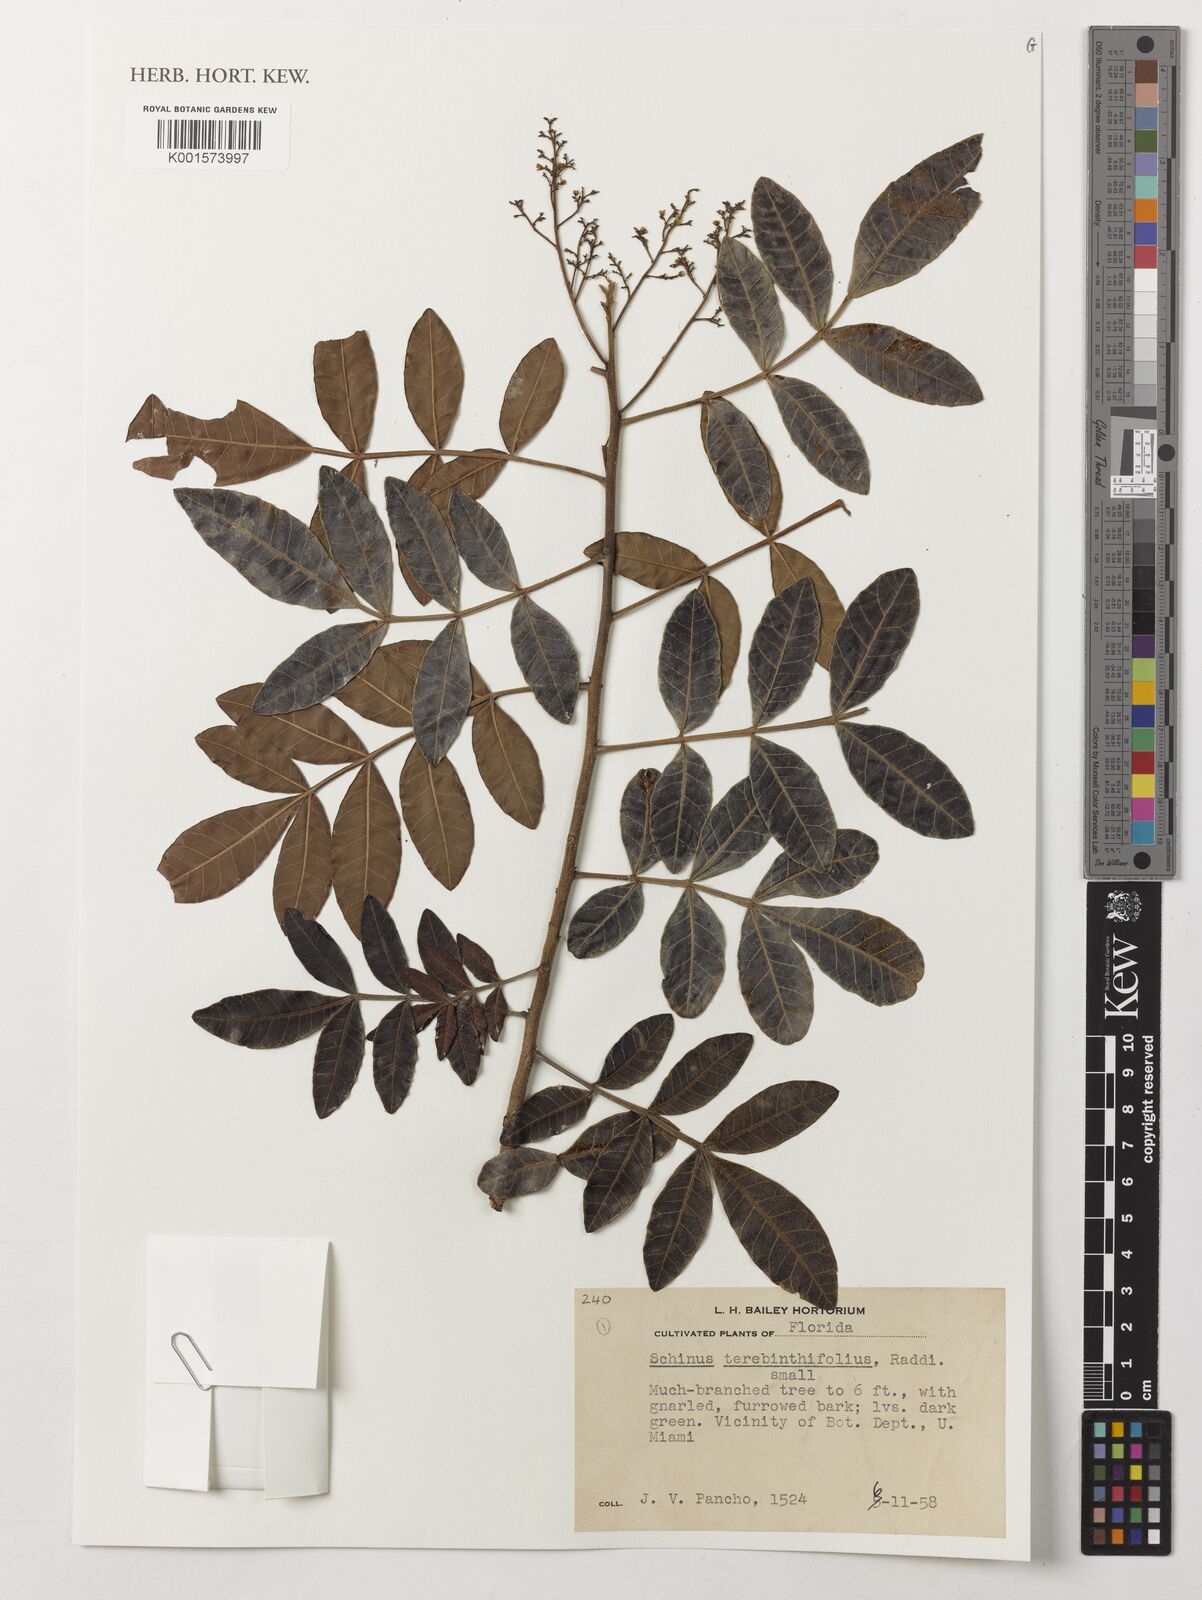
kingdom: Plantae
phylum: Tracheophyta
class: Magnoliopsida
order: Sapindales
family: Anacardiaceae
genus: Schinus
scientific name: Schinus terebinthifolia
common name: Brazilian peppertree
